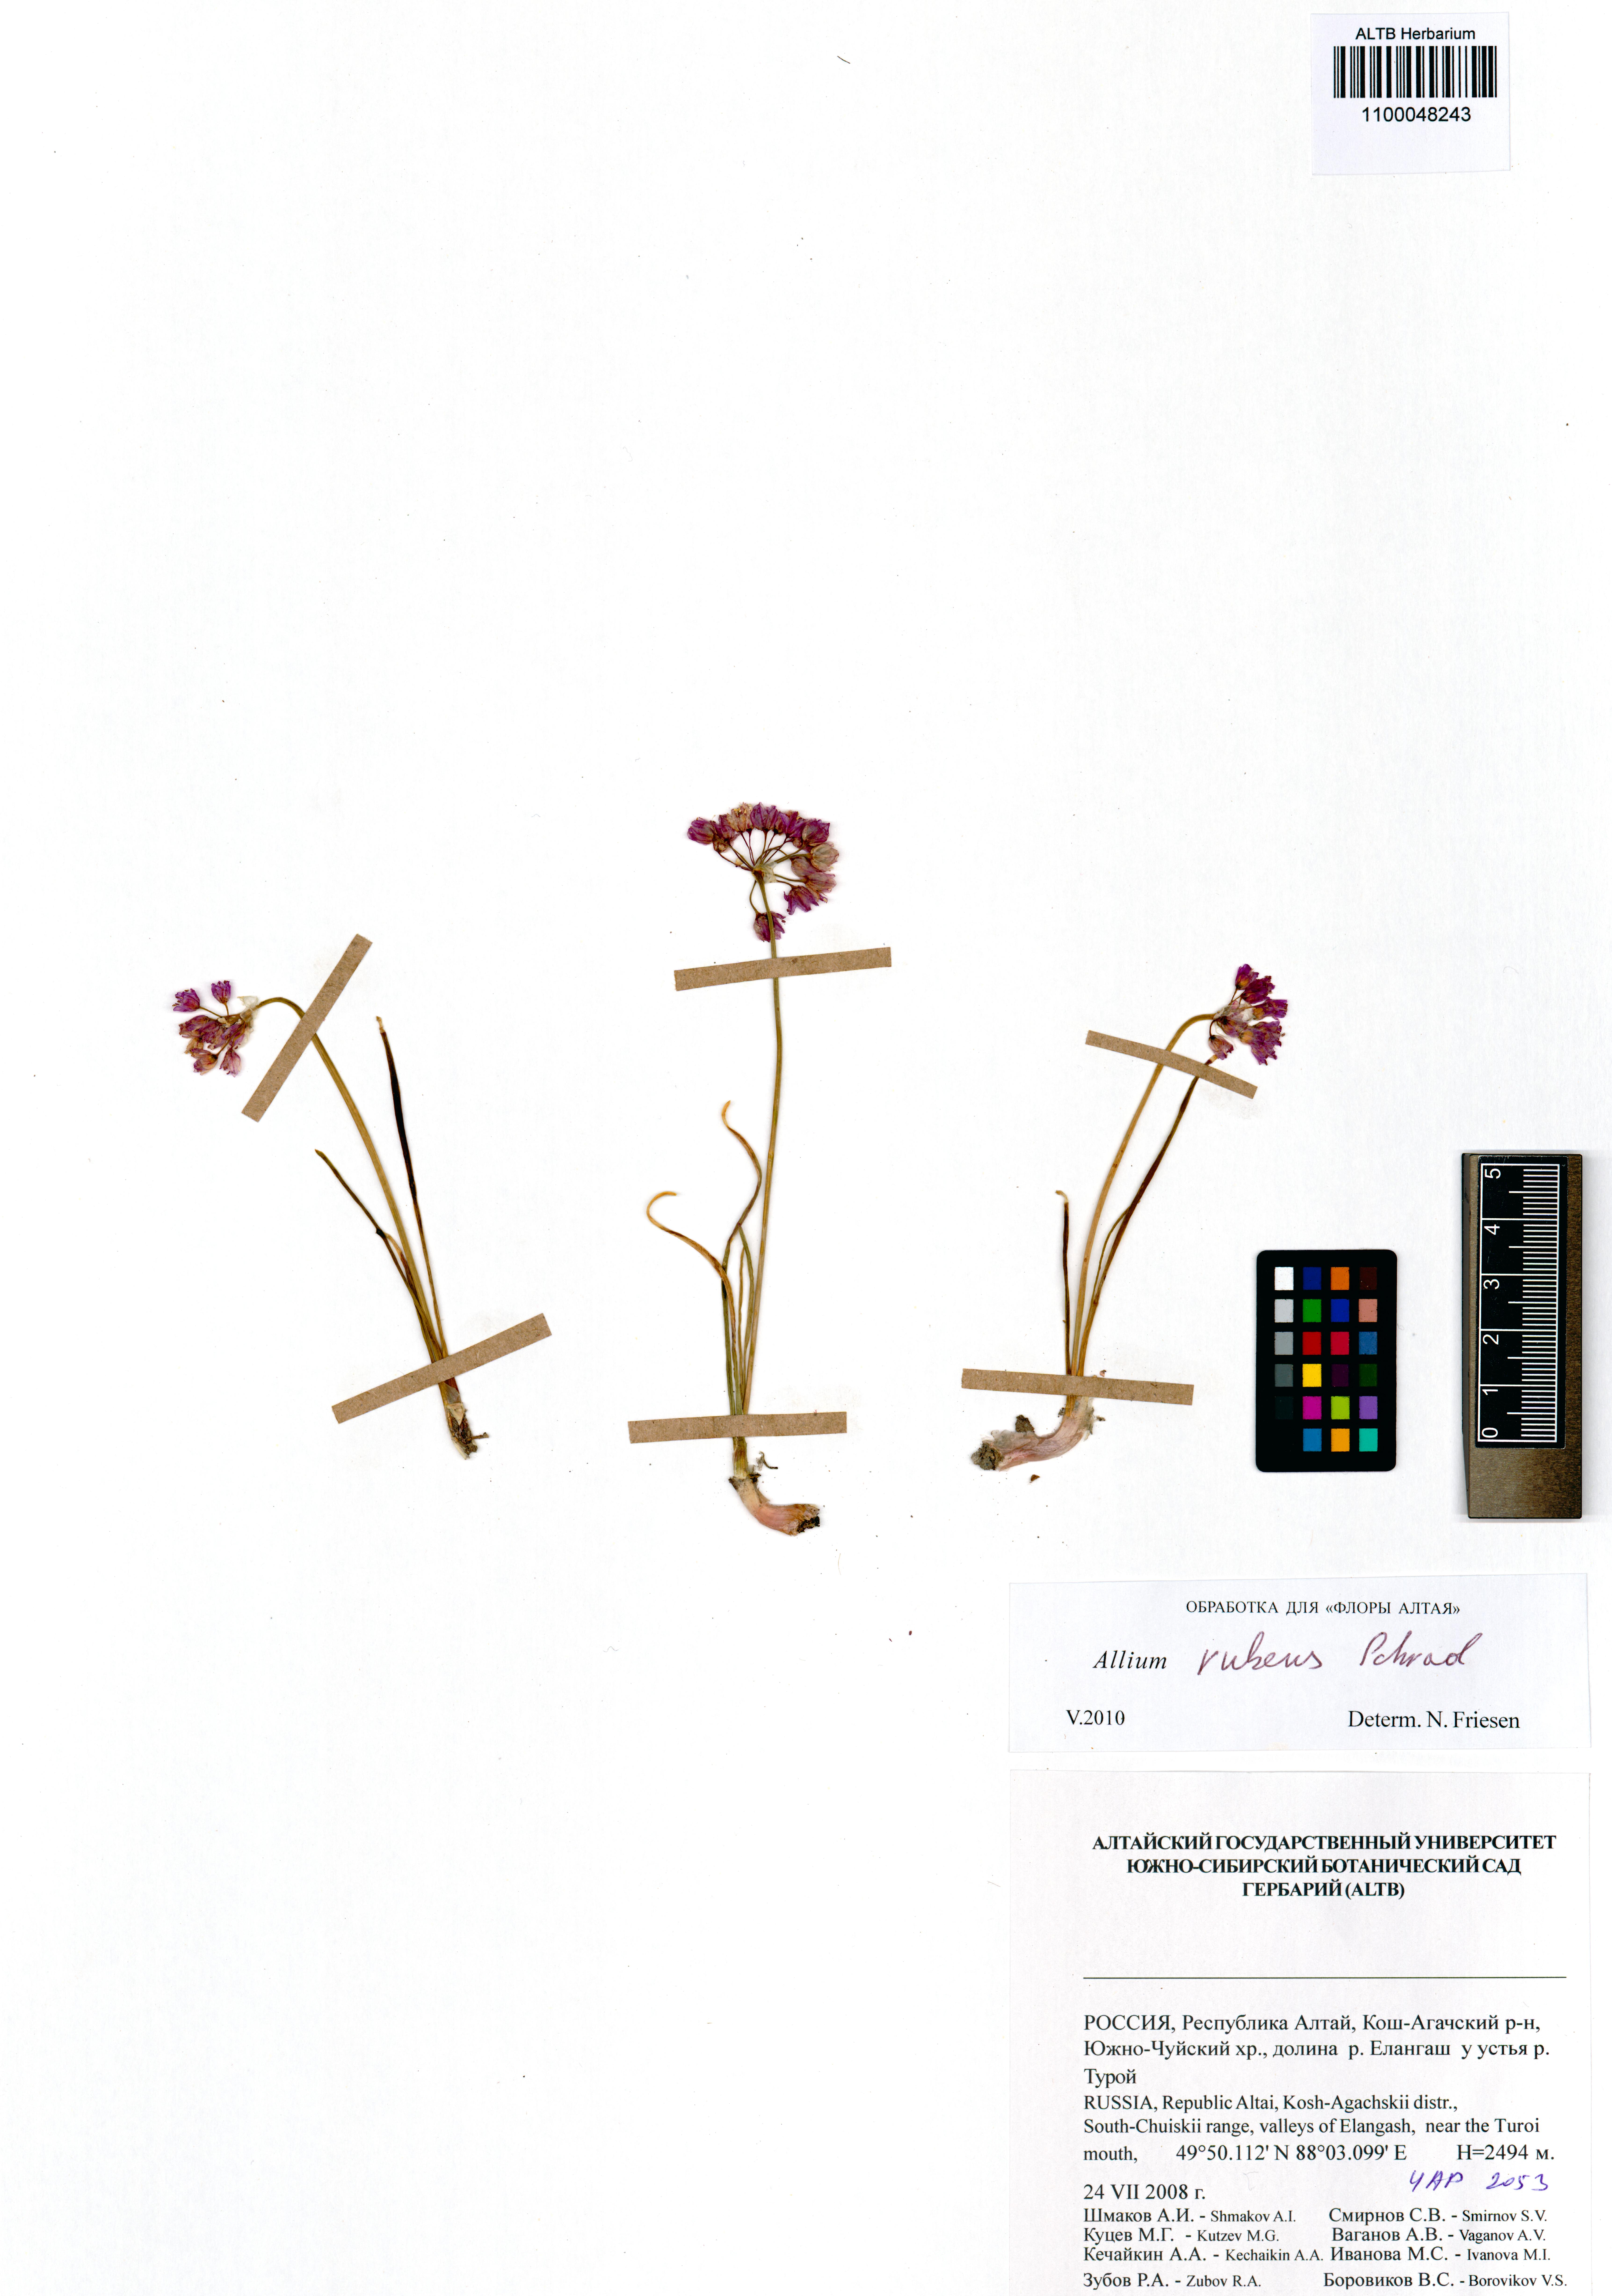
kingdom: Plantae
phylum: Tracheophyta
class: Liliopsida
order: Asparagales
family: Amaryllidaceae
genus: Allium
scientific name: Allium rubens
